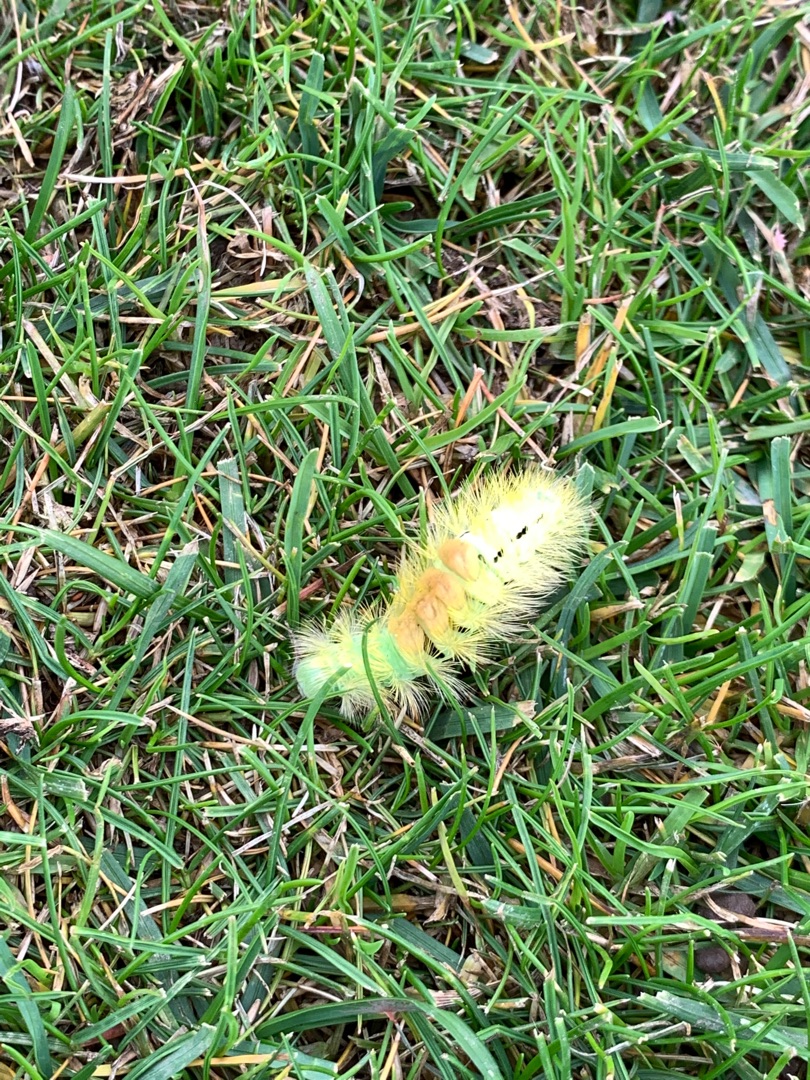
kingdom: Animalia
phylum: Arthropoda
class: Insecta
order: Lepidoptera
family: Erebidae
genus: Calliteara
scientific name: Calliteara pudibunda
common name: Bøgenonne
